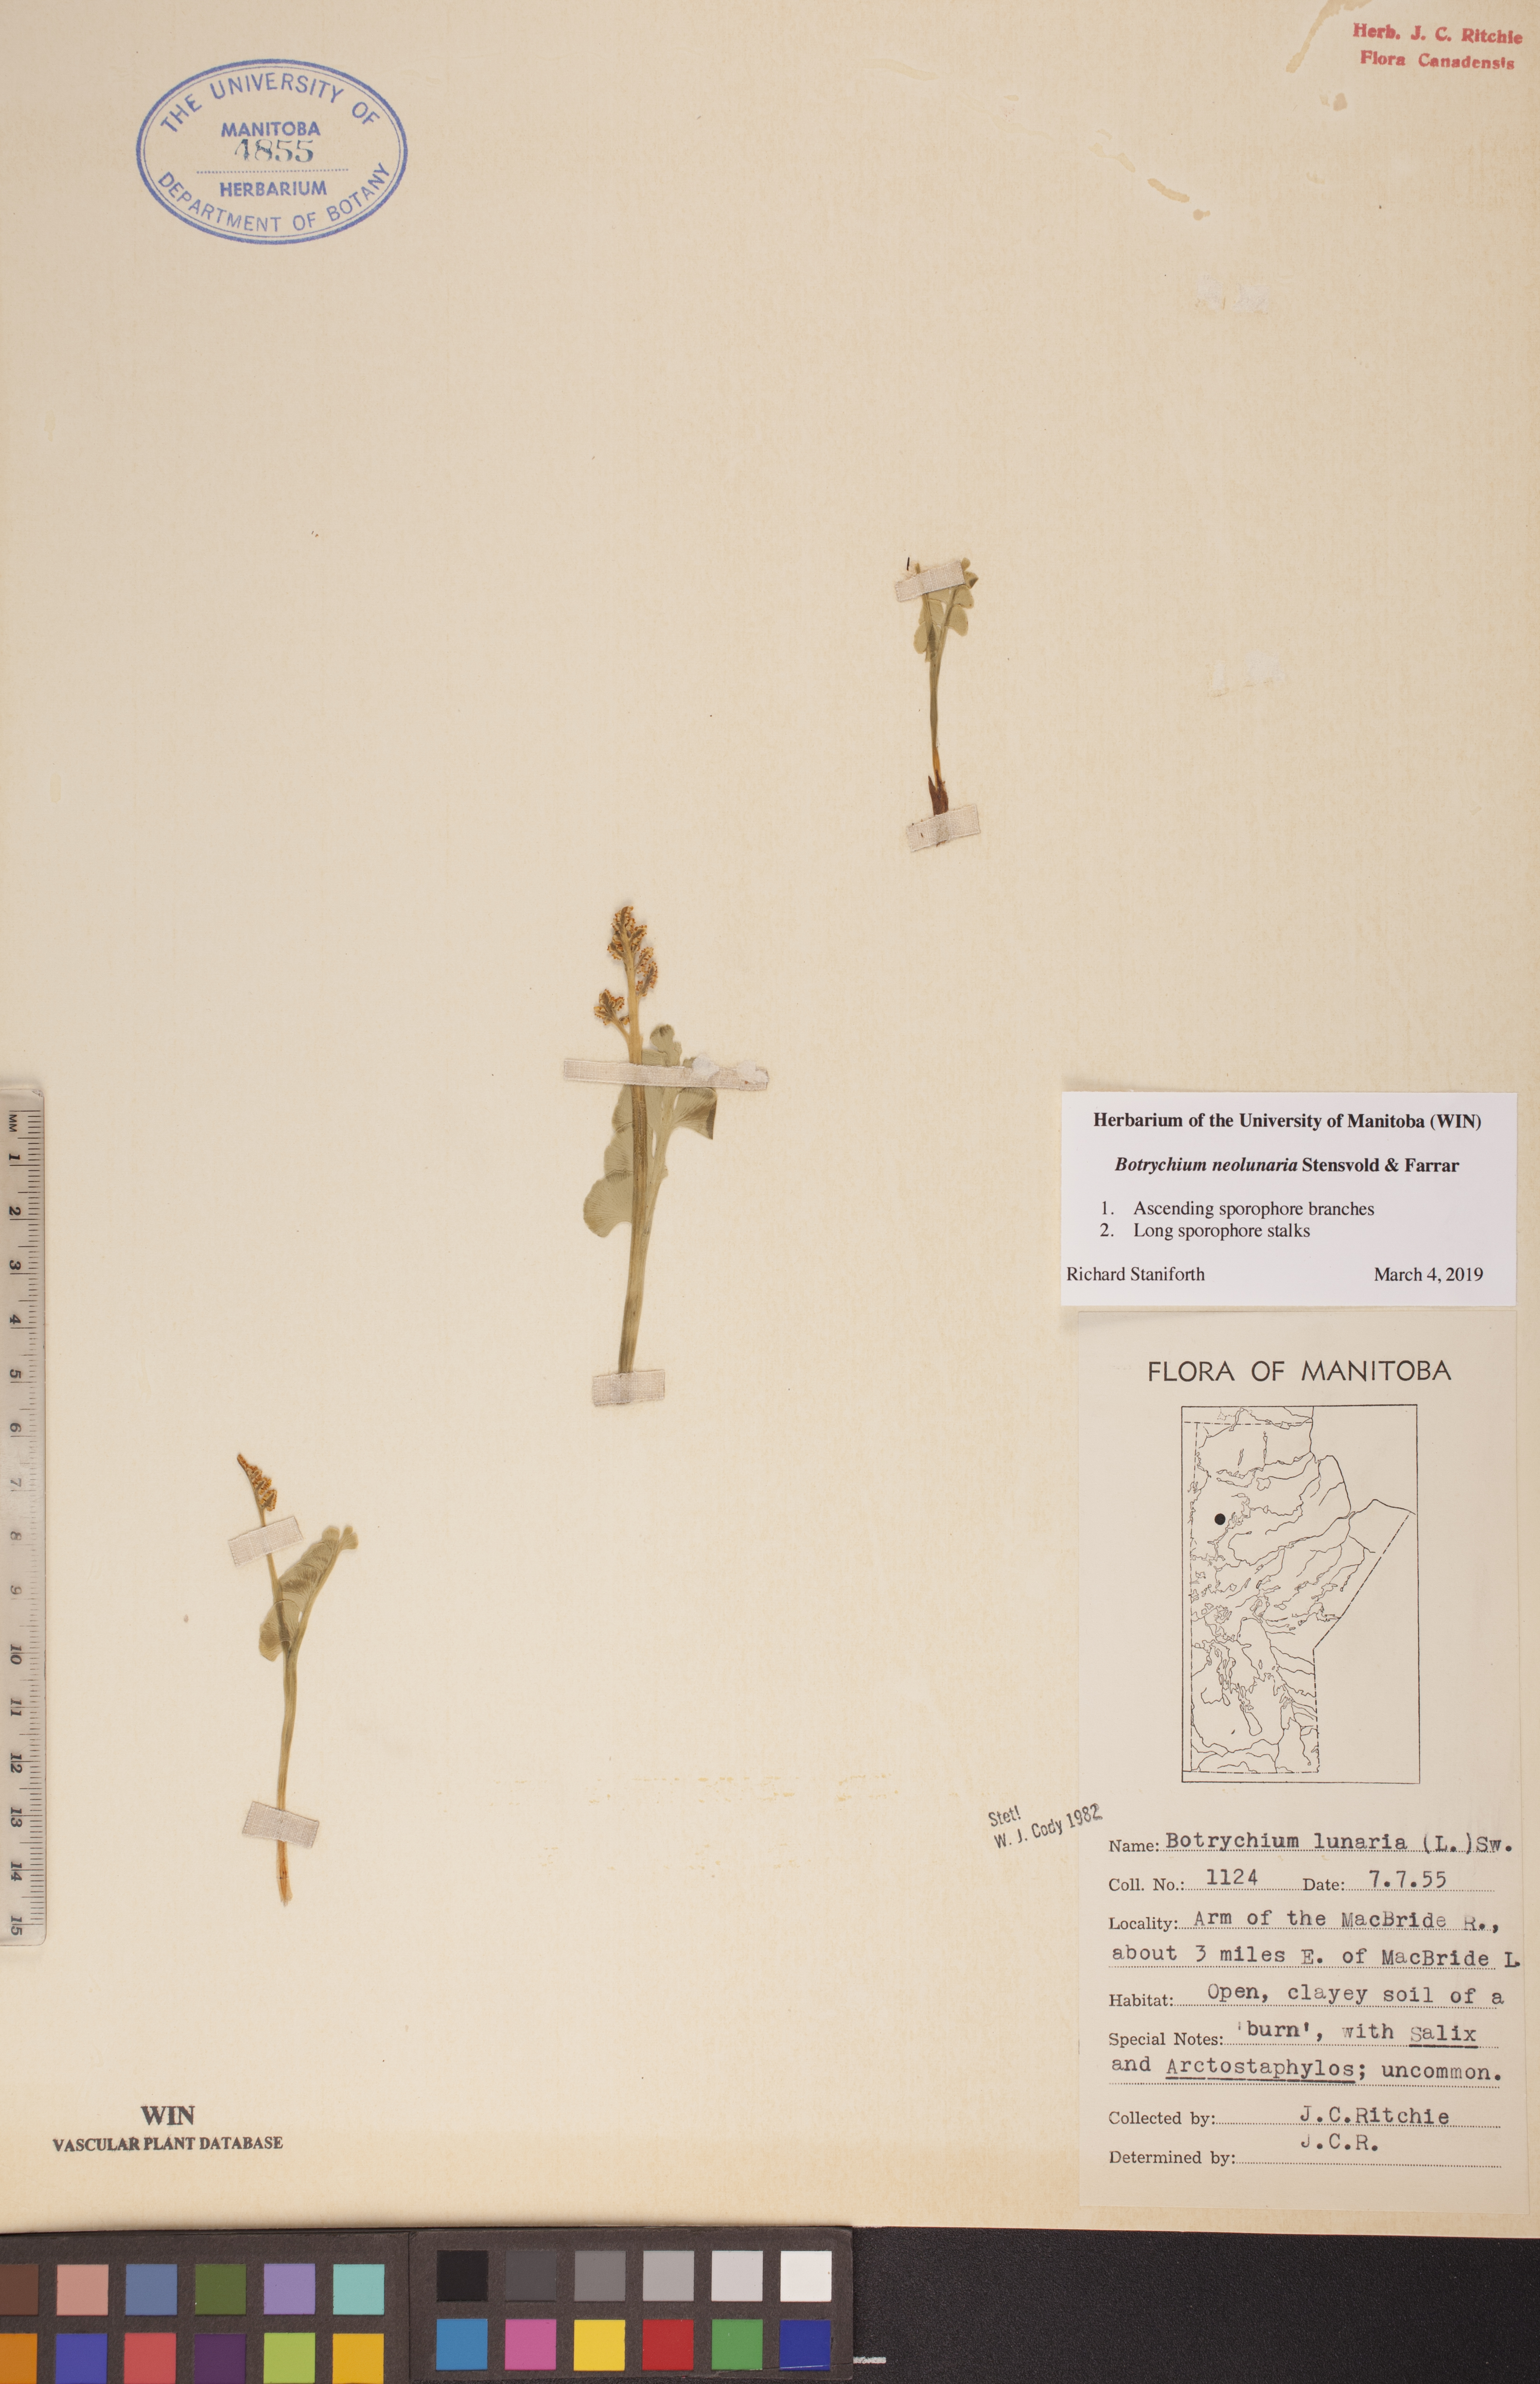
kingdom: Plantae
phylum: Tracheophyta
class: Polypodiopsida
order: Ophioglossales
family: Ophioglossaceae
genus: Botrychium
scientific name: Botrychium neolunaria
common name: New world moonwort
